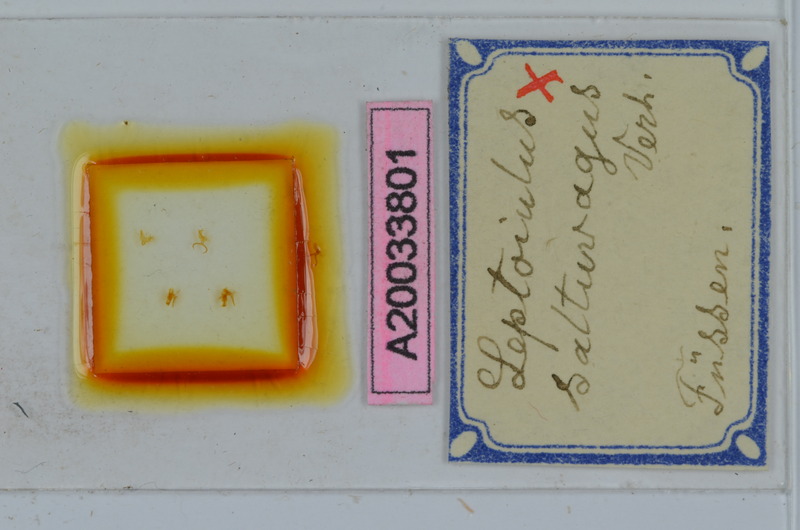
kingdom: Animalia
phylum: Arthropoda
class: Diplopoda
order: Julida
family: Julidae
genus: Leptoiulus
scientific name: Leptoiulus saltuvagus
